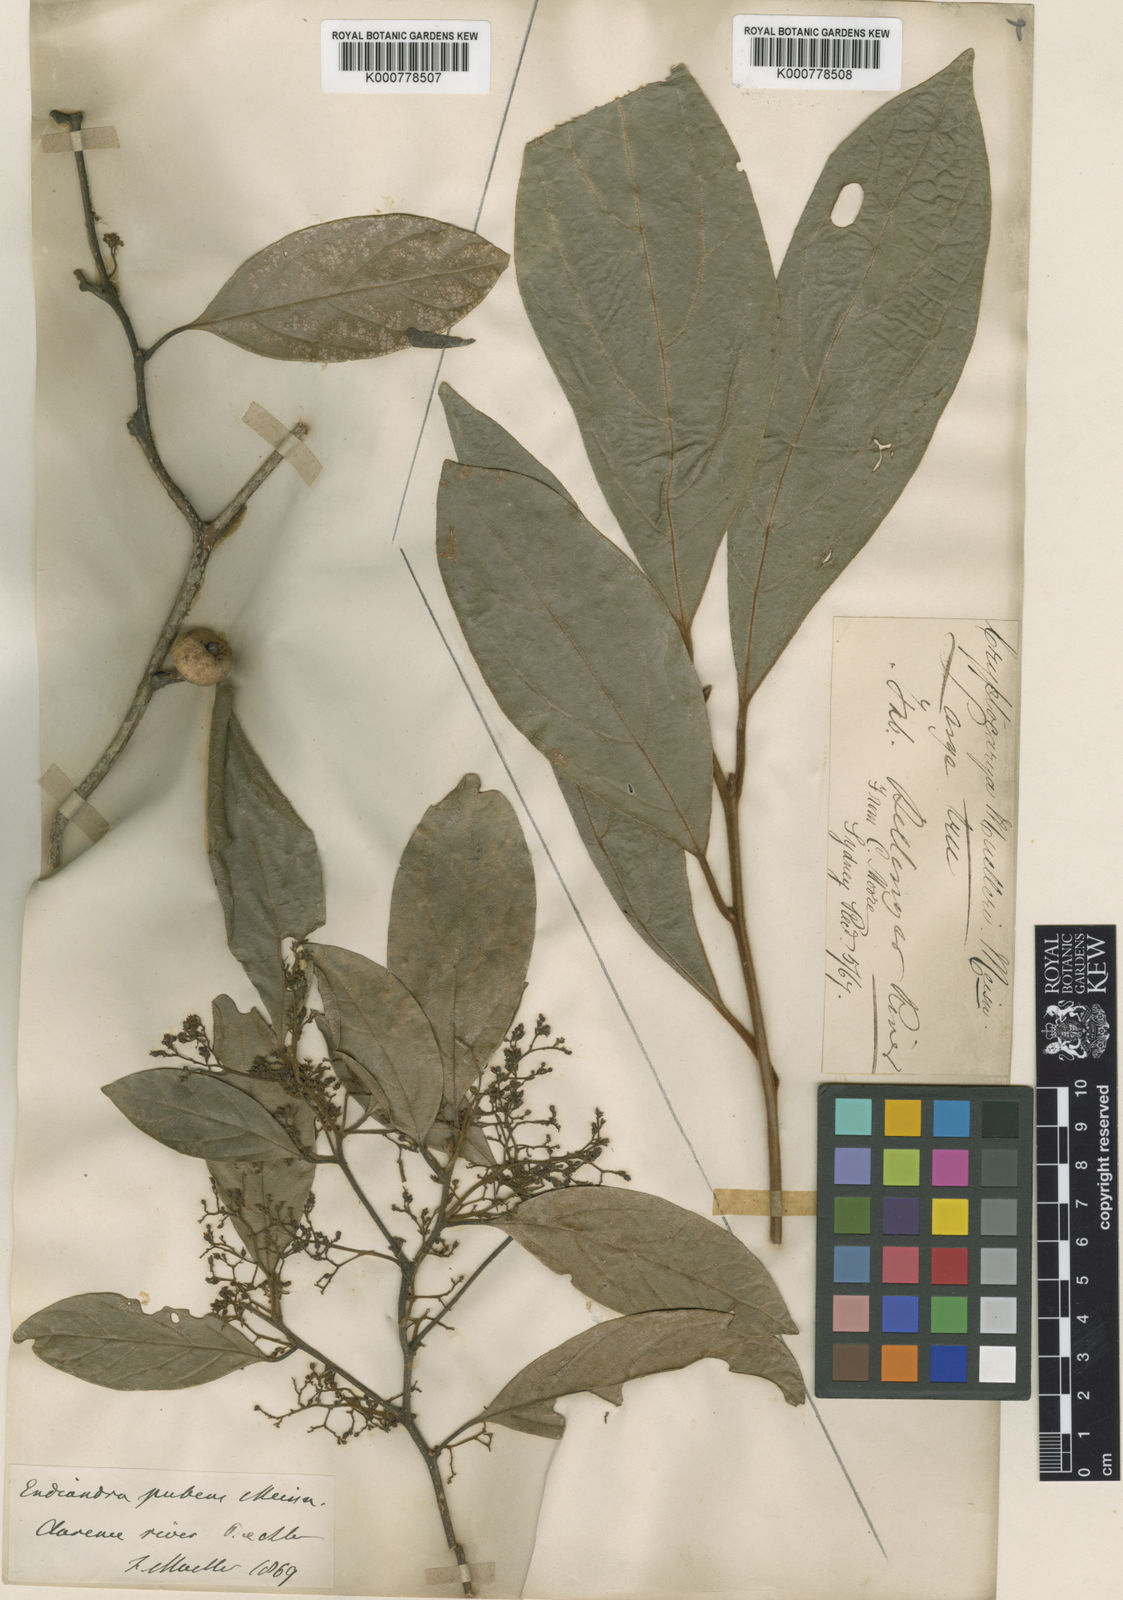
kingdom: Plantae
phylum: Tracheophyta
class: Magnoliopsida
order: Laurales
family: Lauraceae
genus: Endiandra
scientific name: Endiandra pubens
